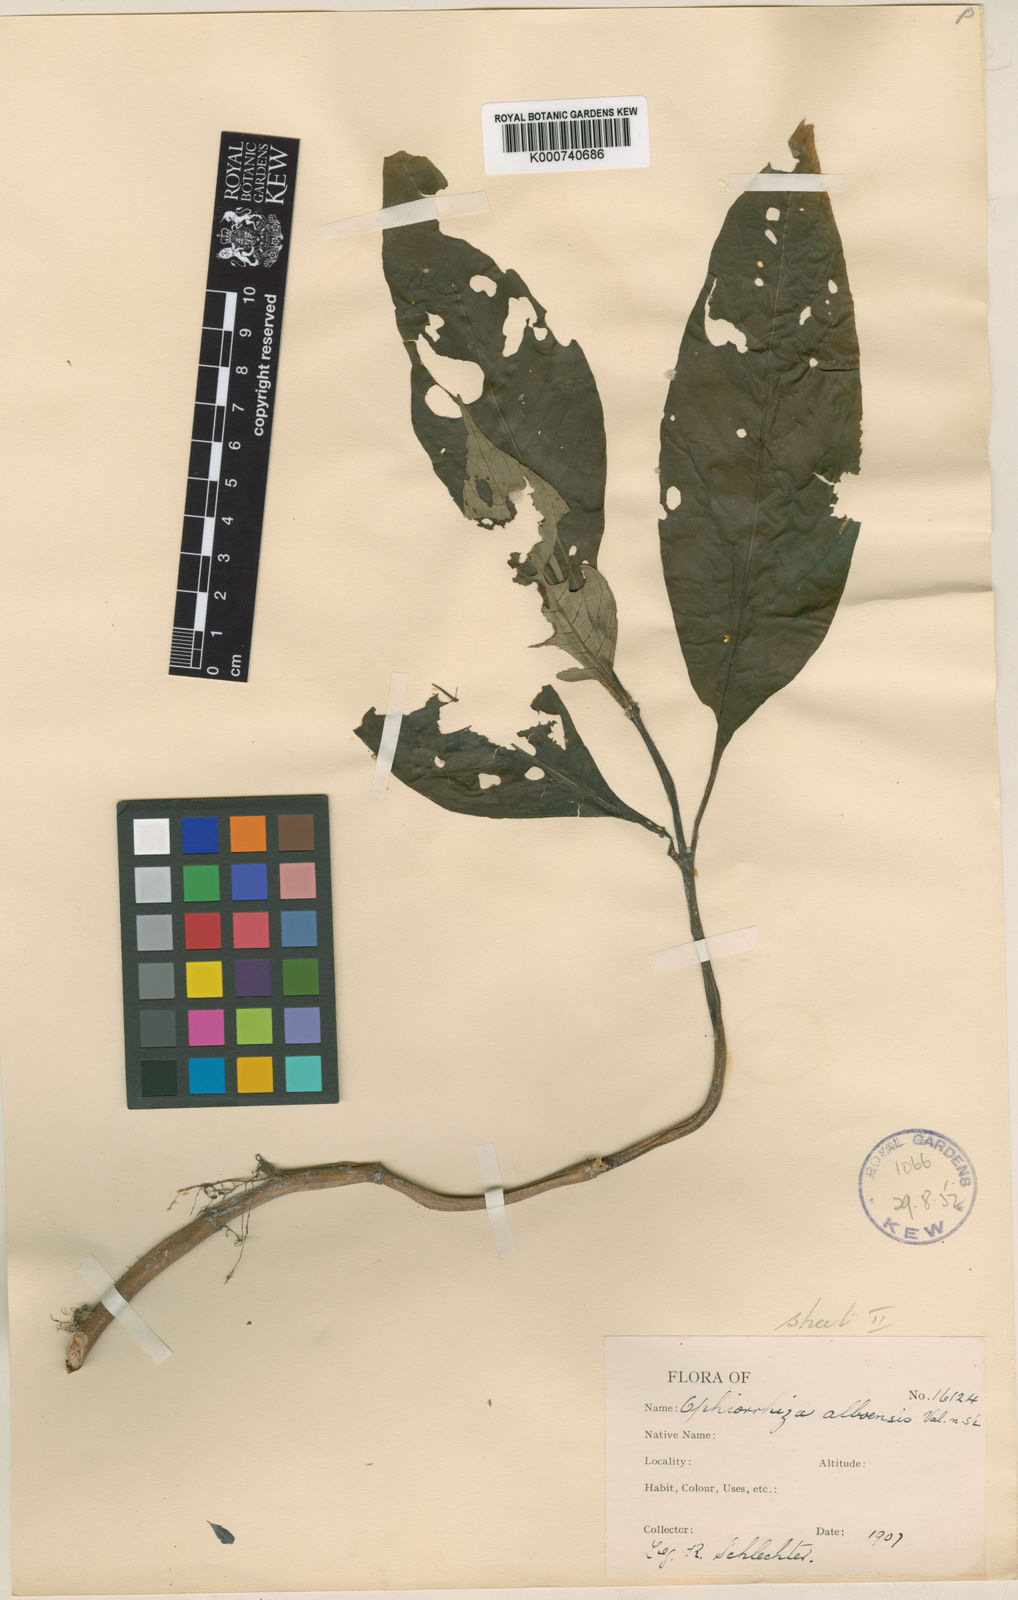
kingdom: Plantae
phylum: Tracheophyta
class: Magnoliopsida
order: Gentianales
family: Rubiaceae
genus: Ophiorrhiza
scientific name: Ophiorrhiza alboensis
